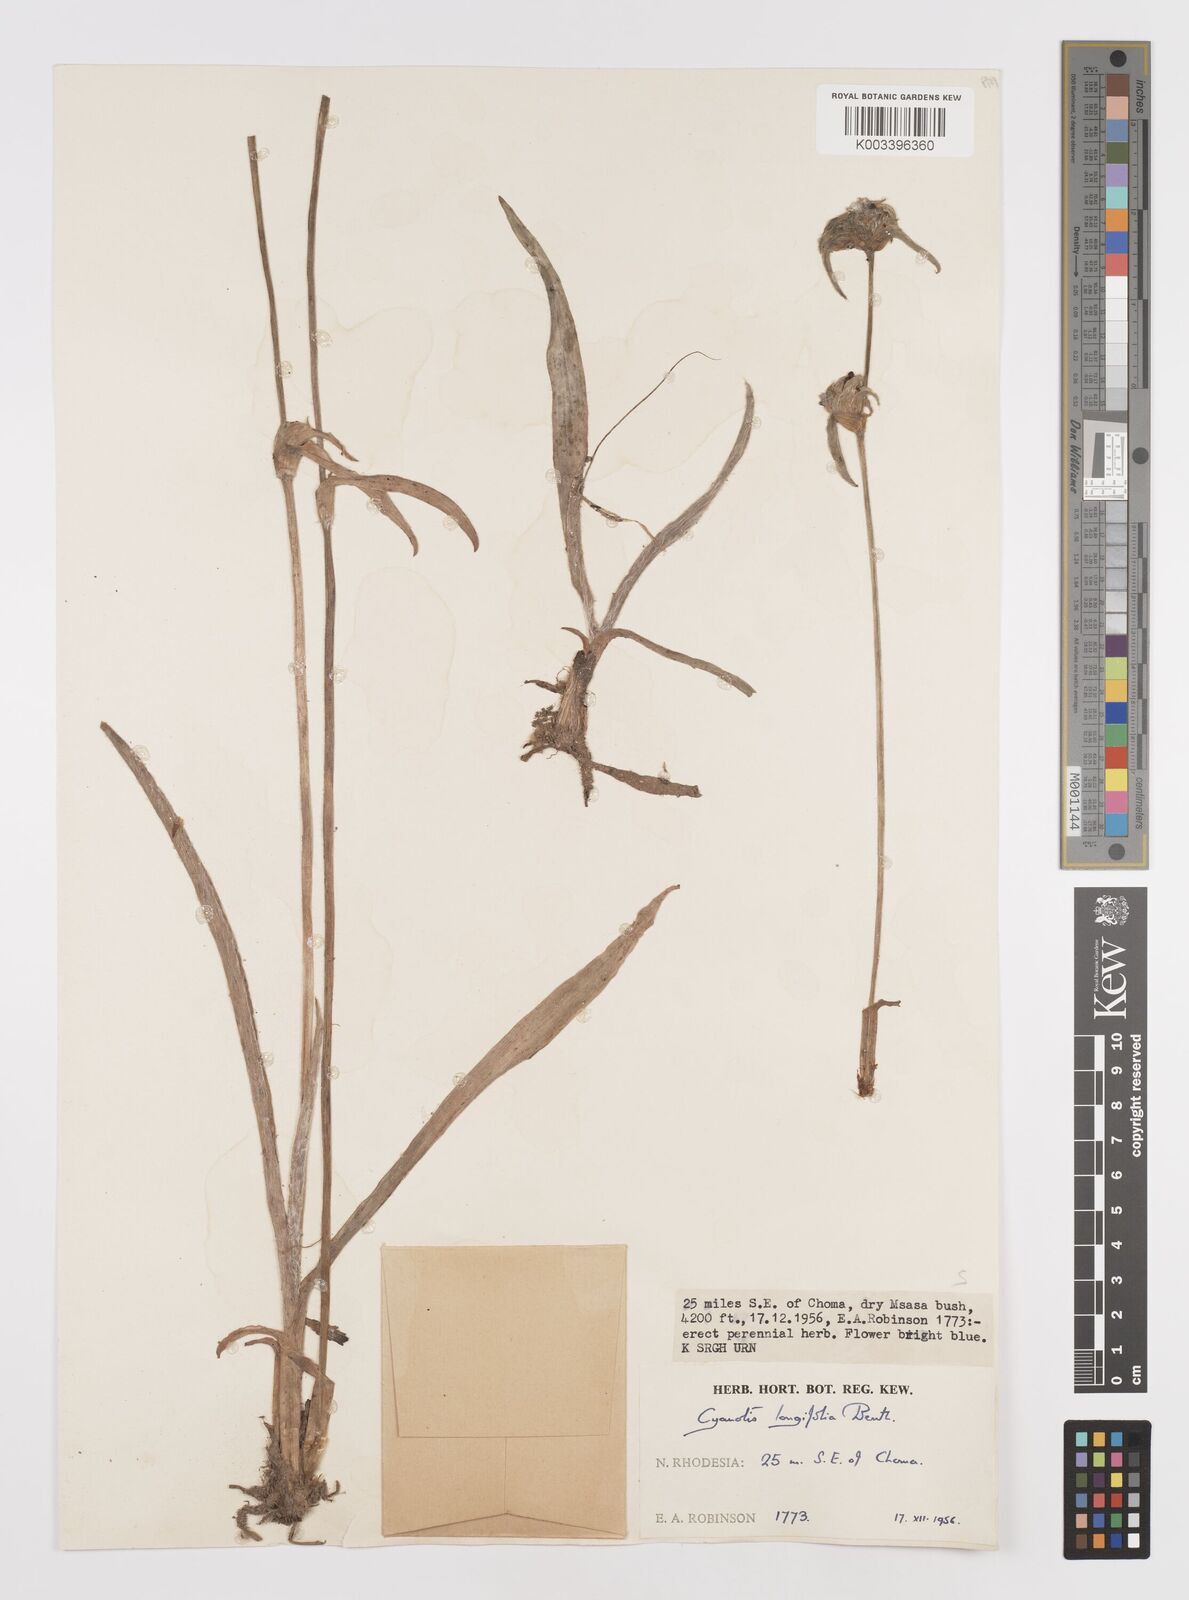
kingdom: Plantae
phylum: Tracheophyta
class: Liliopsida
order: Commelinales
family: Commelinaceae
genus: Cyanotis
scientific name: Cyanotis longifolia
